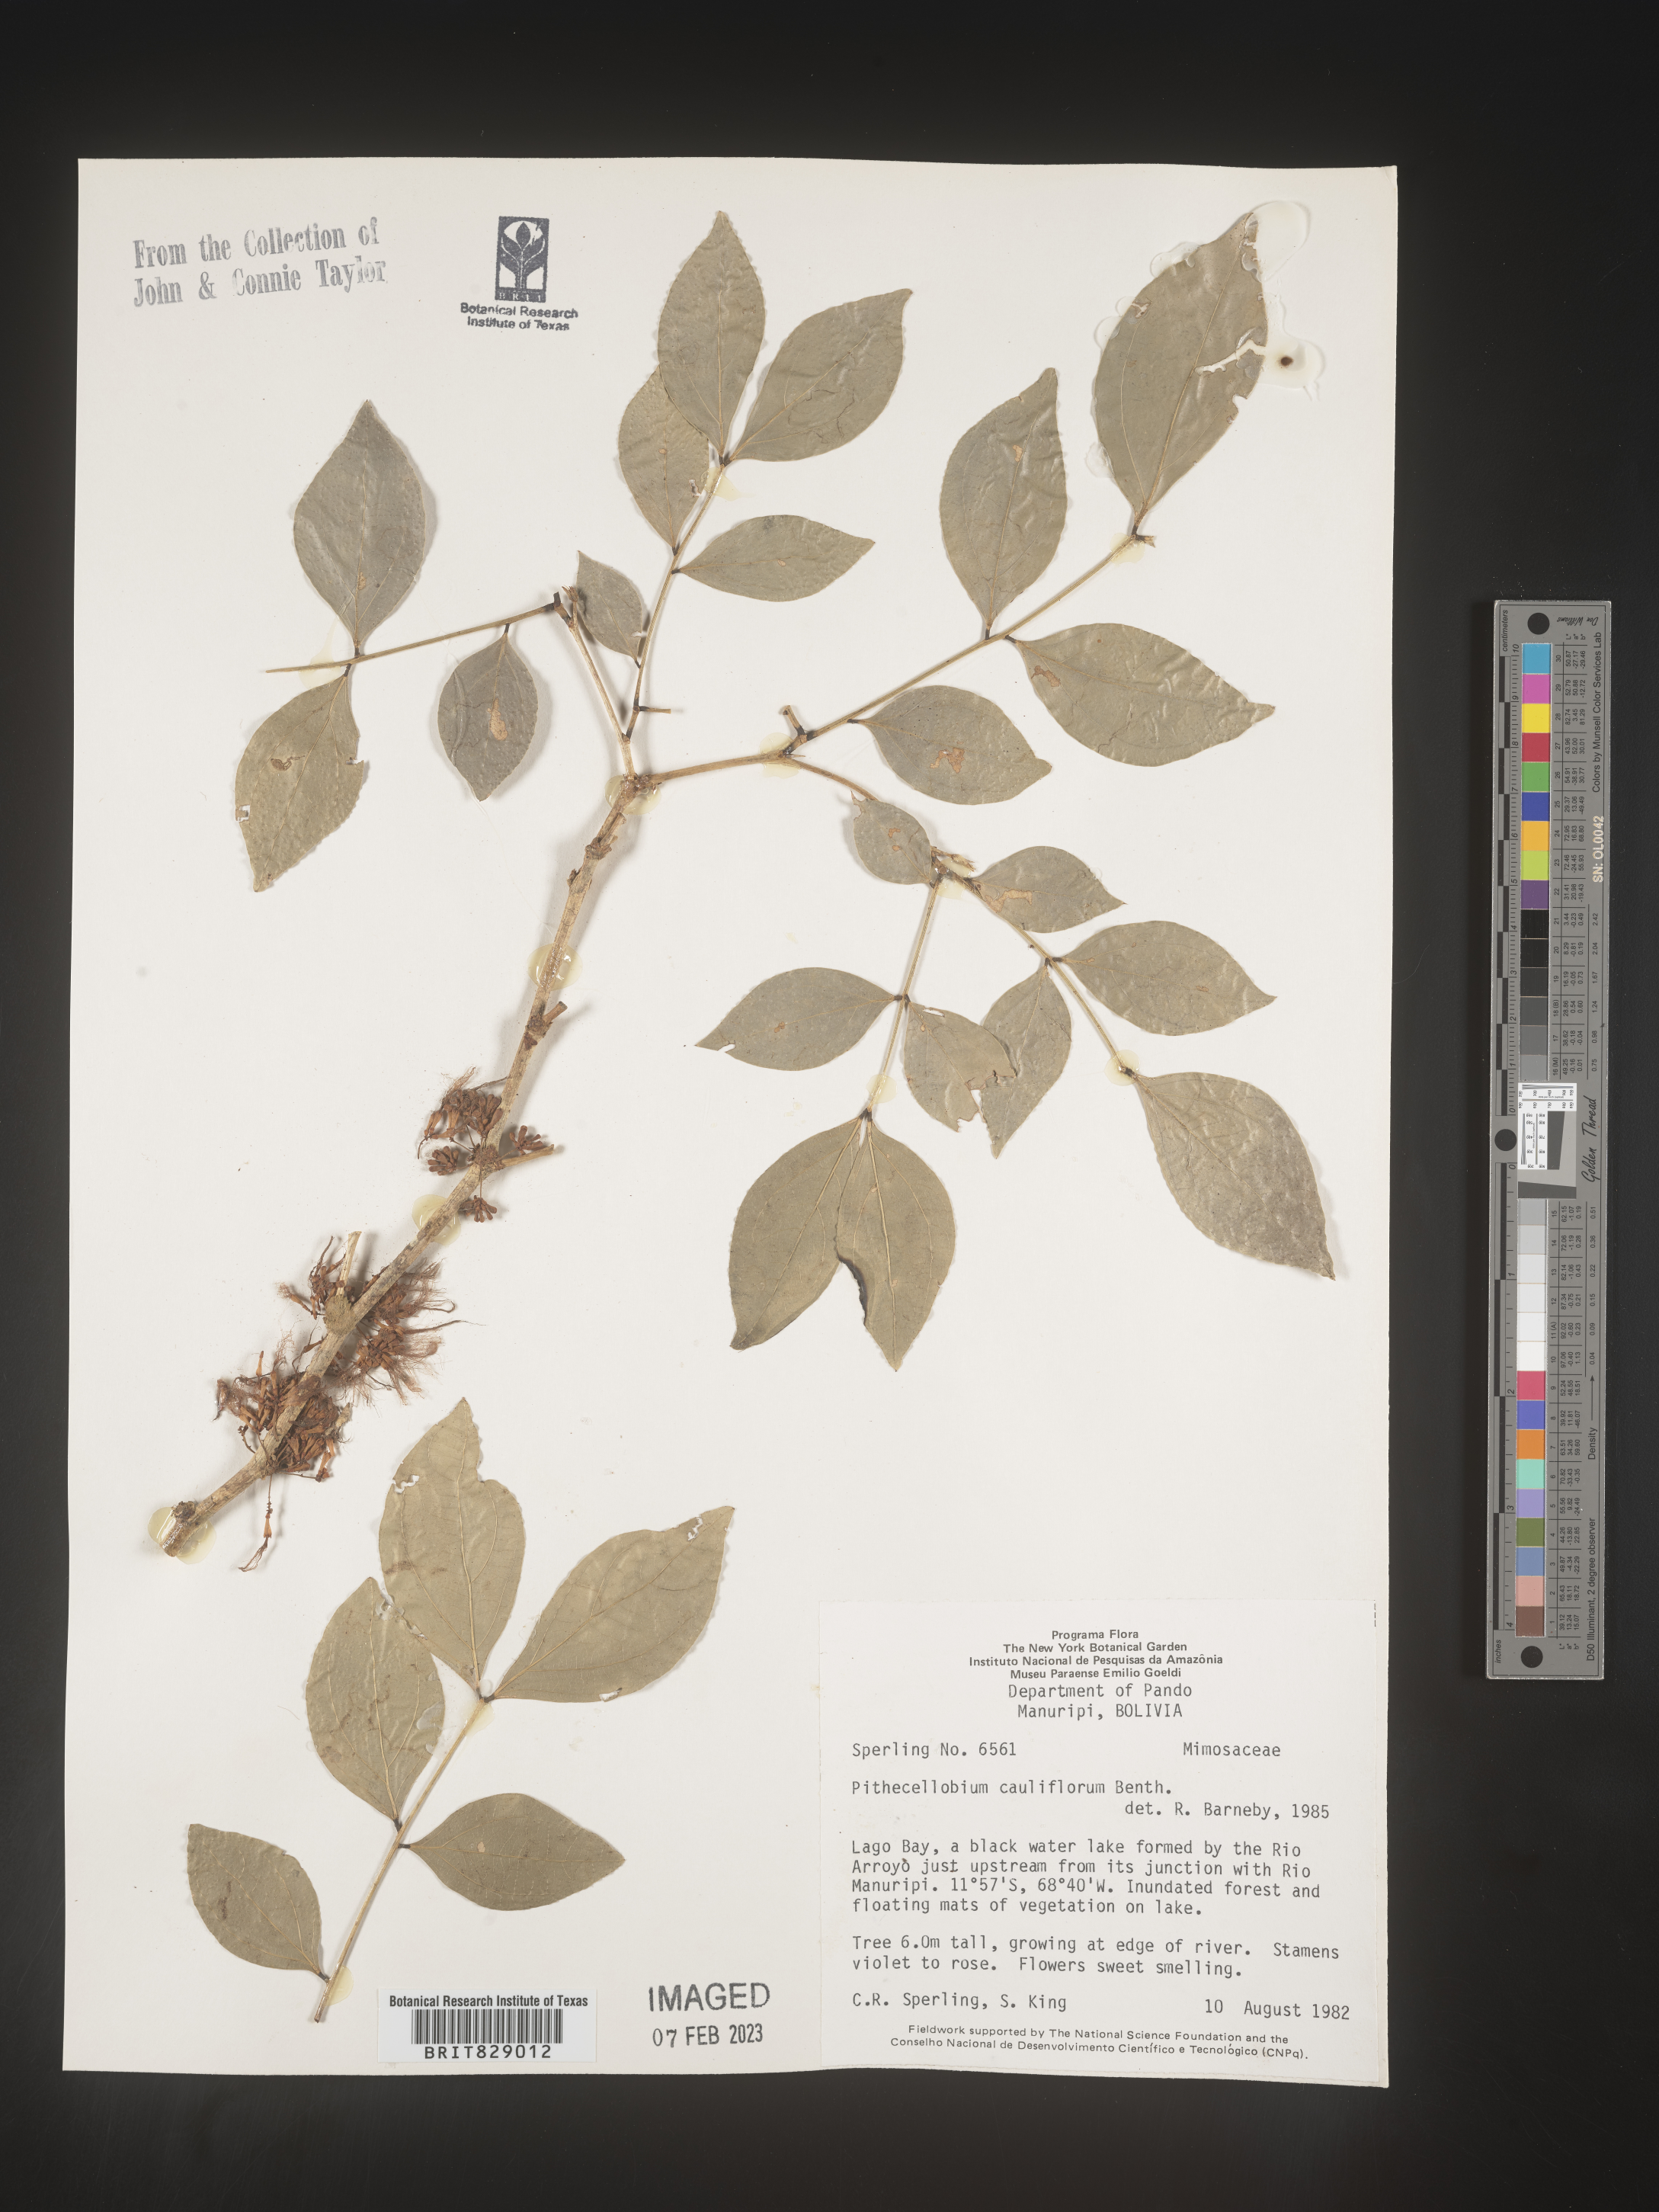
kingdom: Plantae
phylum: Tracheophyta
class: Magnoliopsida
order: Fabales
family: Fabaceae
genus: Pithecellobium
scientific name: Pithecellobium
